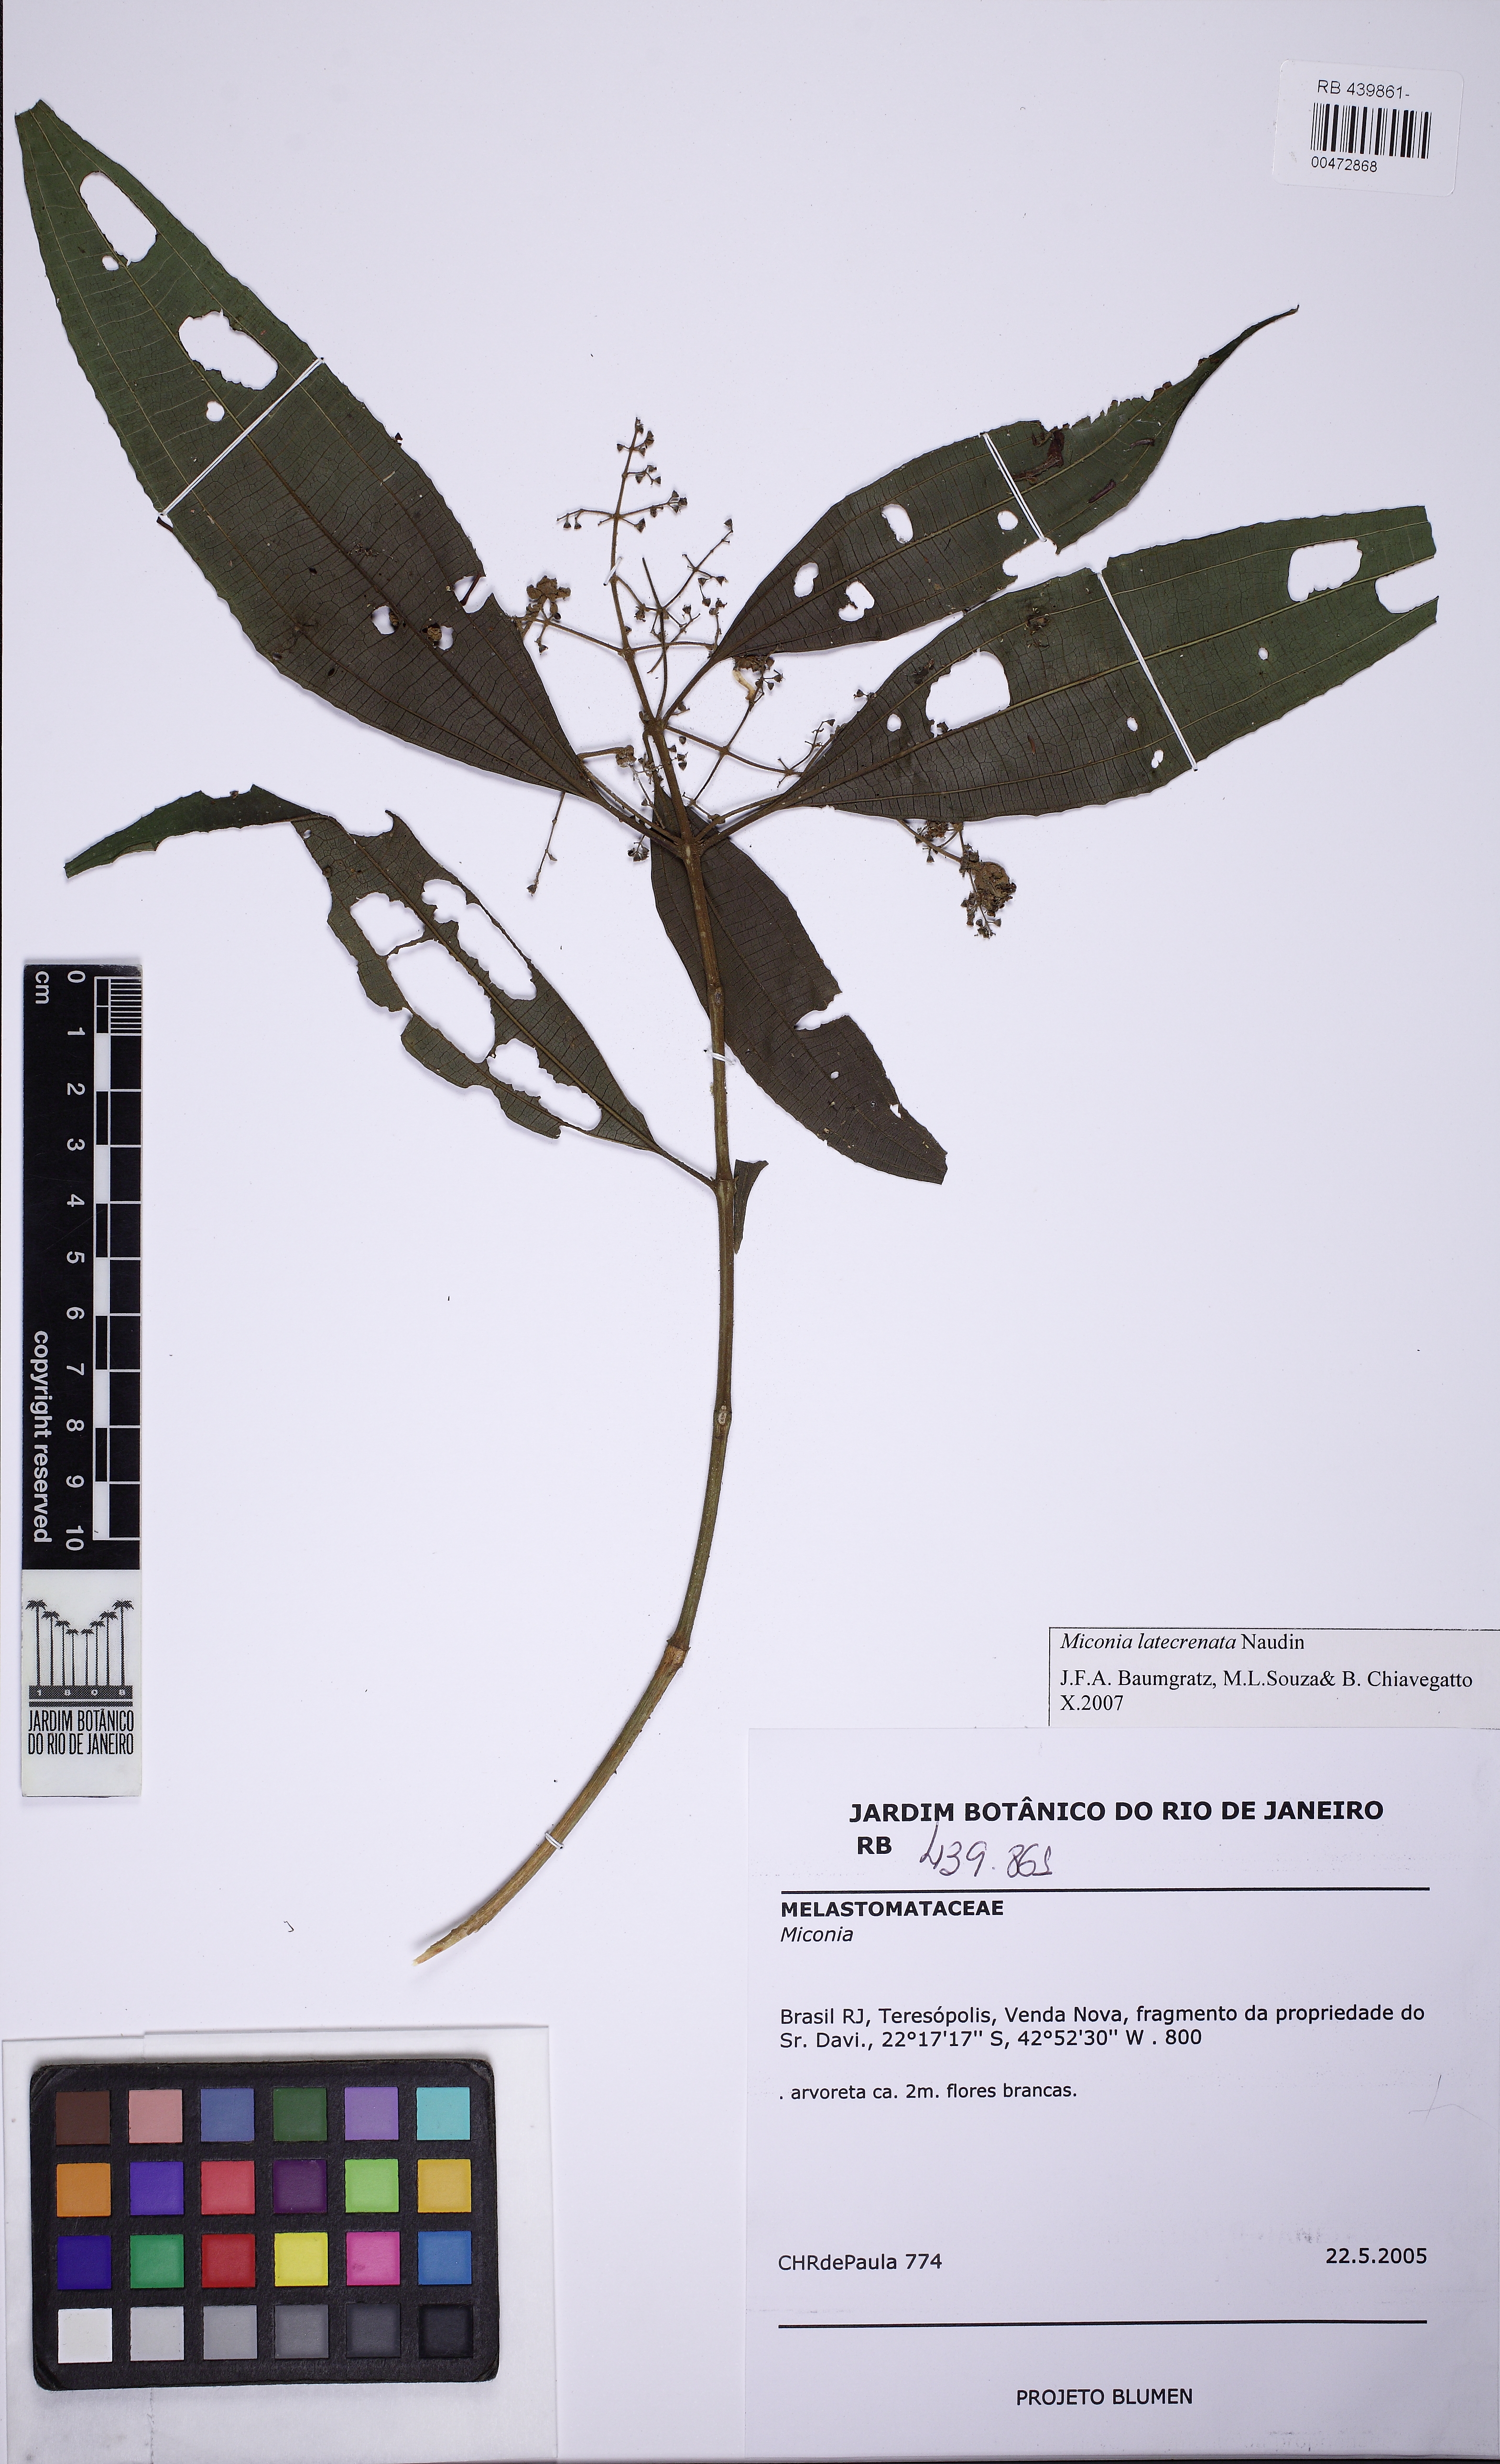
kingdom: Plantae
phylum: Tracheophyta
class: Magnoliopsida
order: Myrtales
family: Melastomataceae
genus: Miconia
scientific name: Miconia latecrenata
